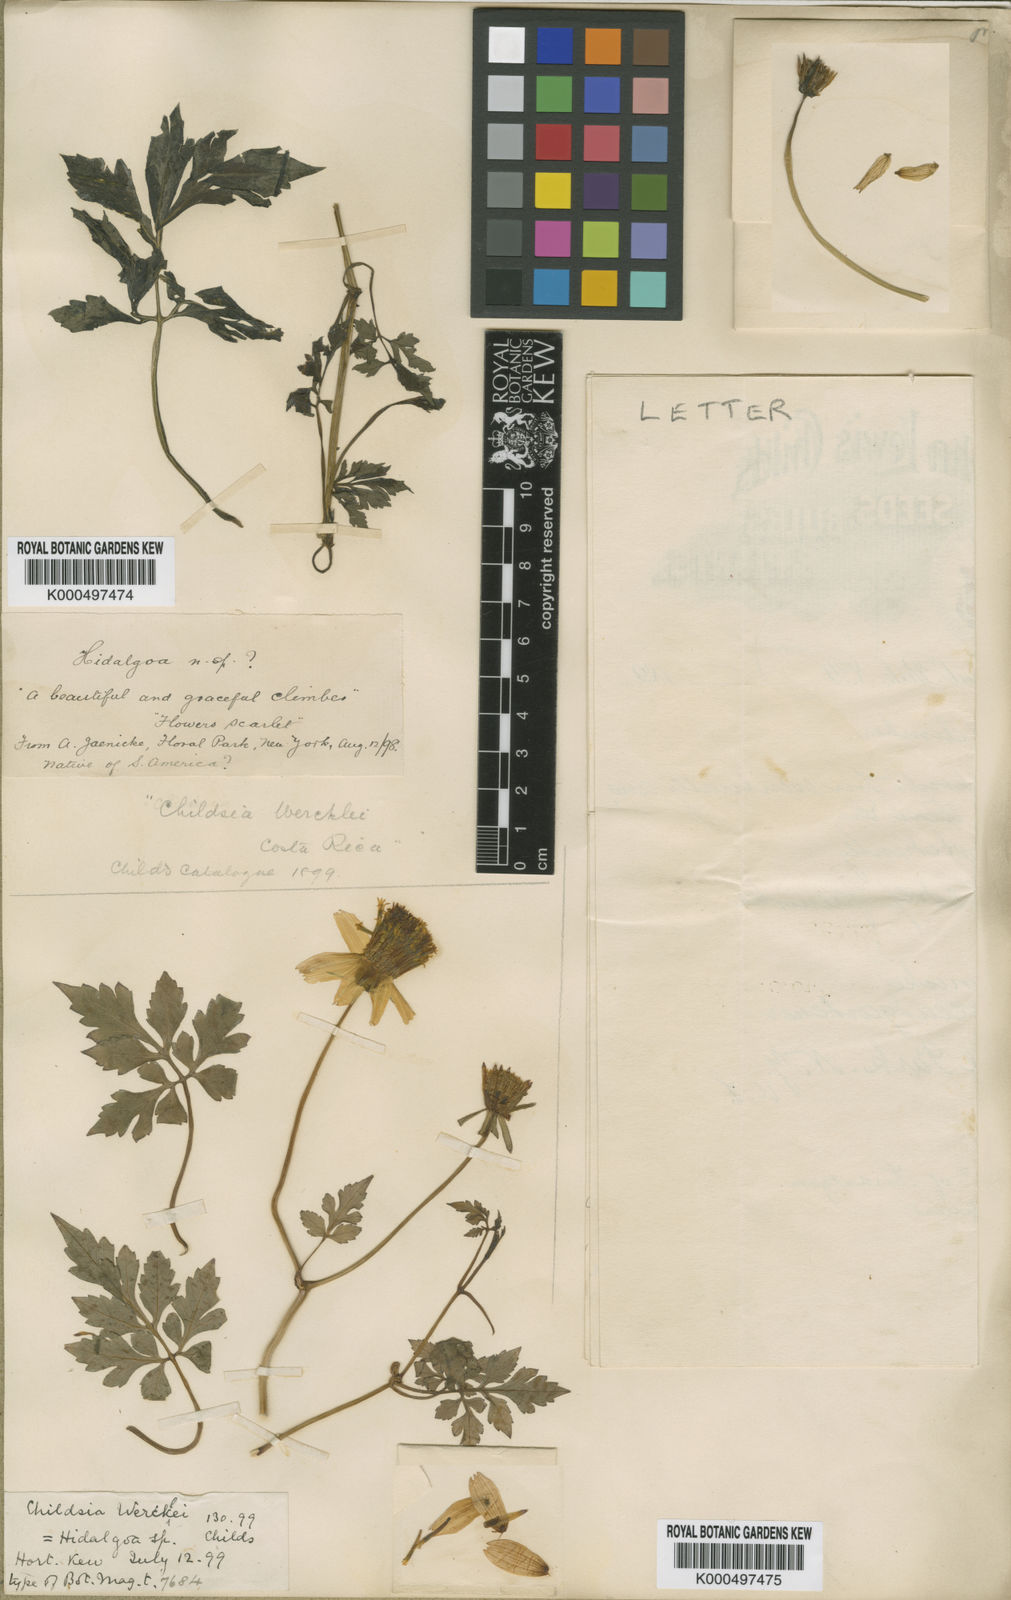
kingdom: Plantae
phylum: Tracheophyta
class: Magnoliopsida
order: Asterales
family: Asteraceae
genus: Hidalgoa
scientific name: Hidalgoa wercklei
